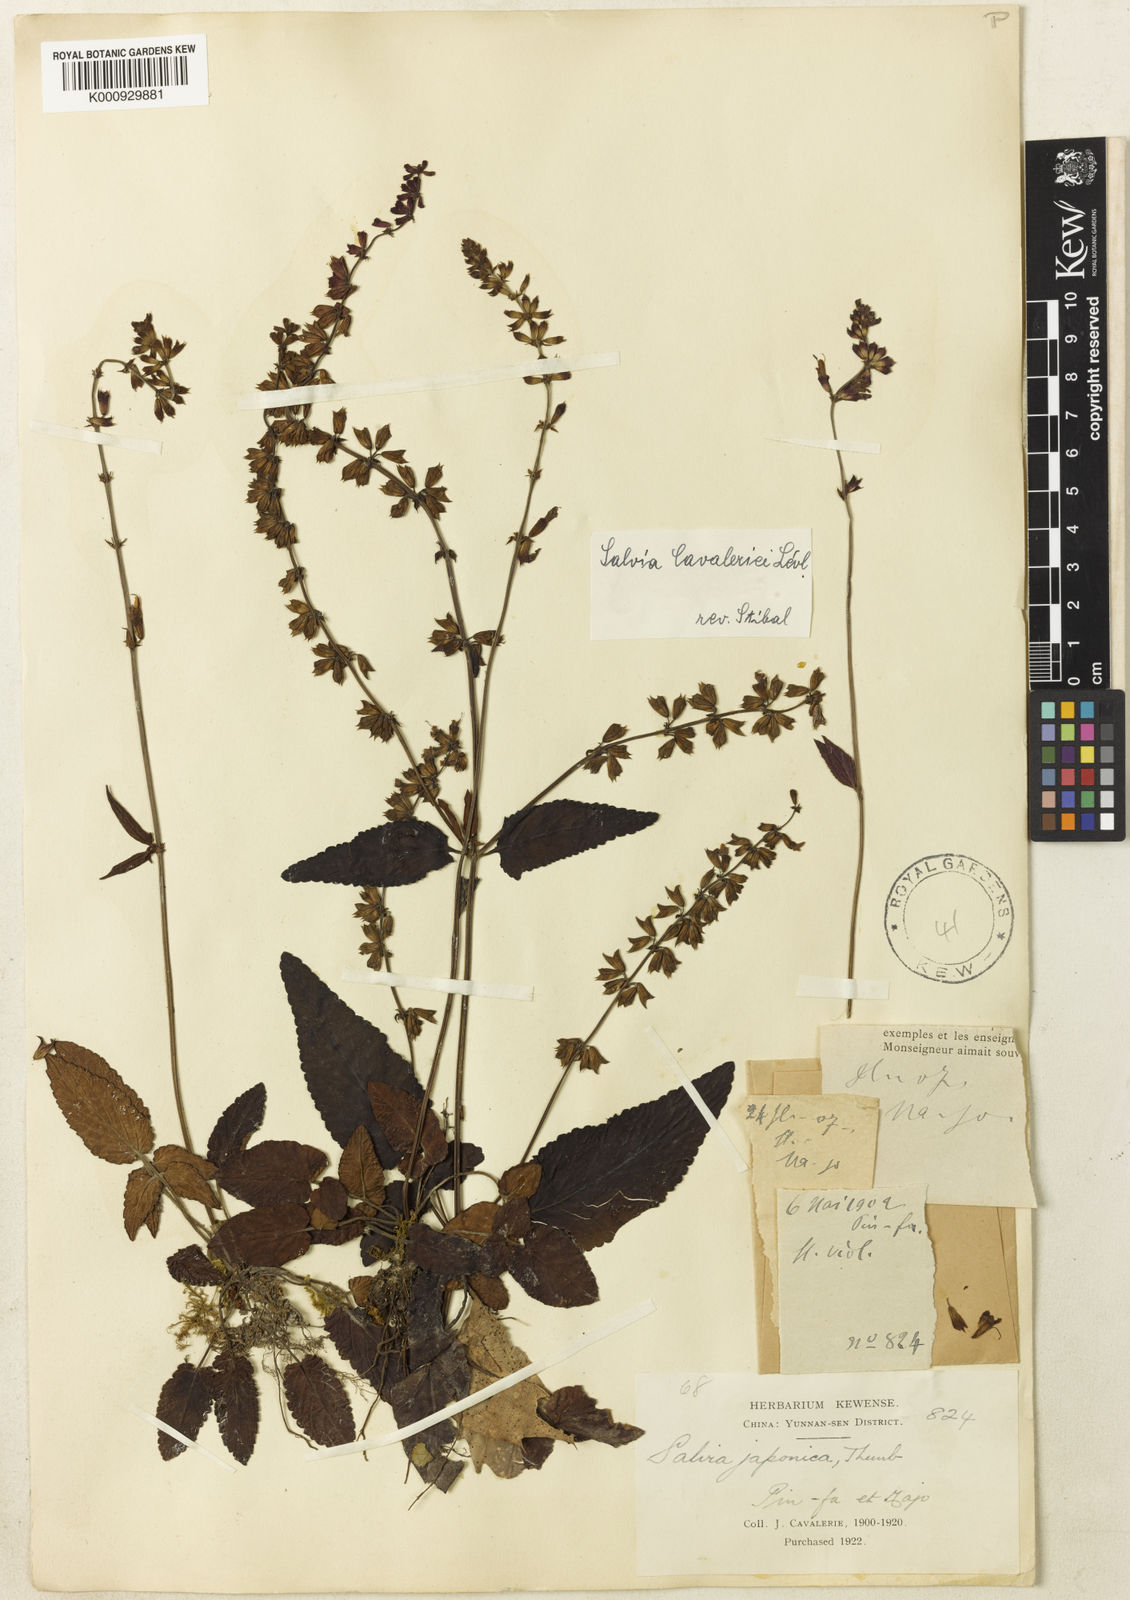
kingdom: Plantae
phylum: Tracheophyta
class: Magnoliopsida
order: Lamiales
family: Lamiaceae
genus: Salvia
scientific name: Salvia
